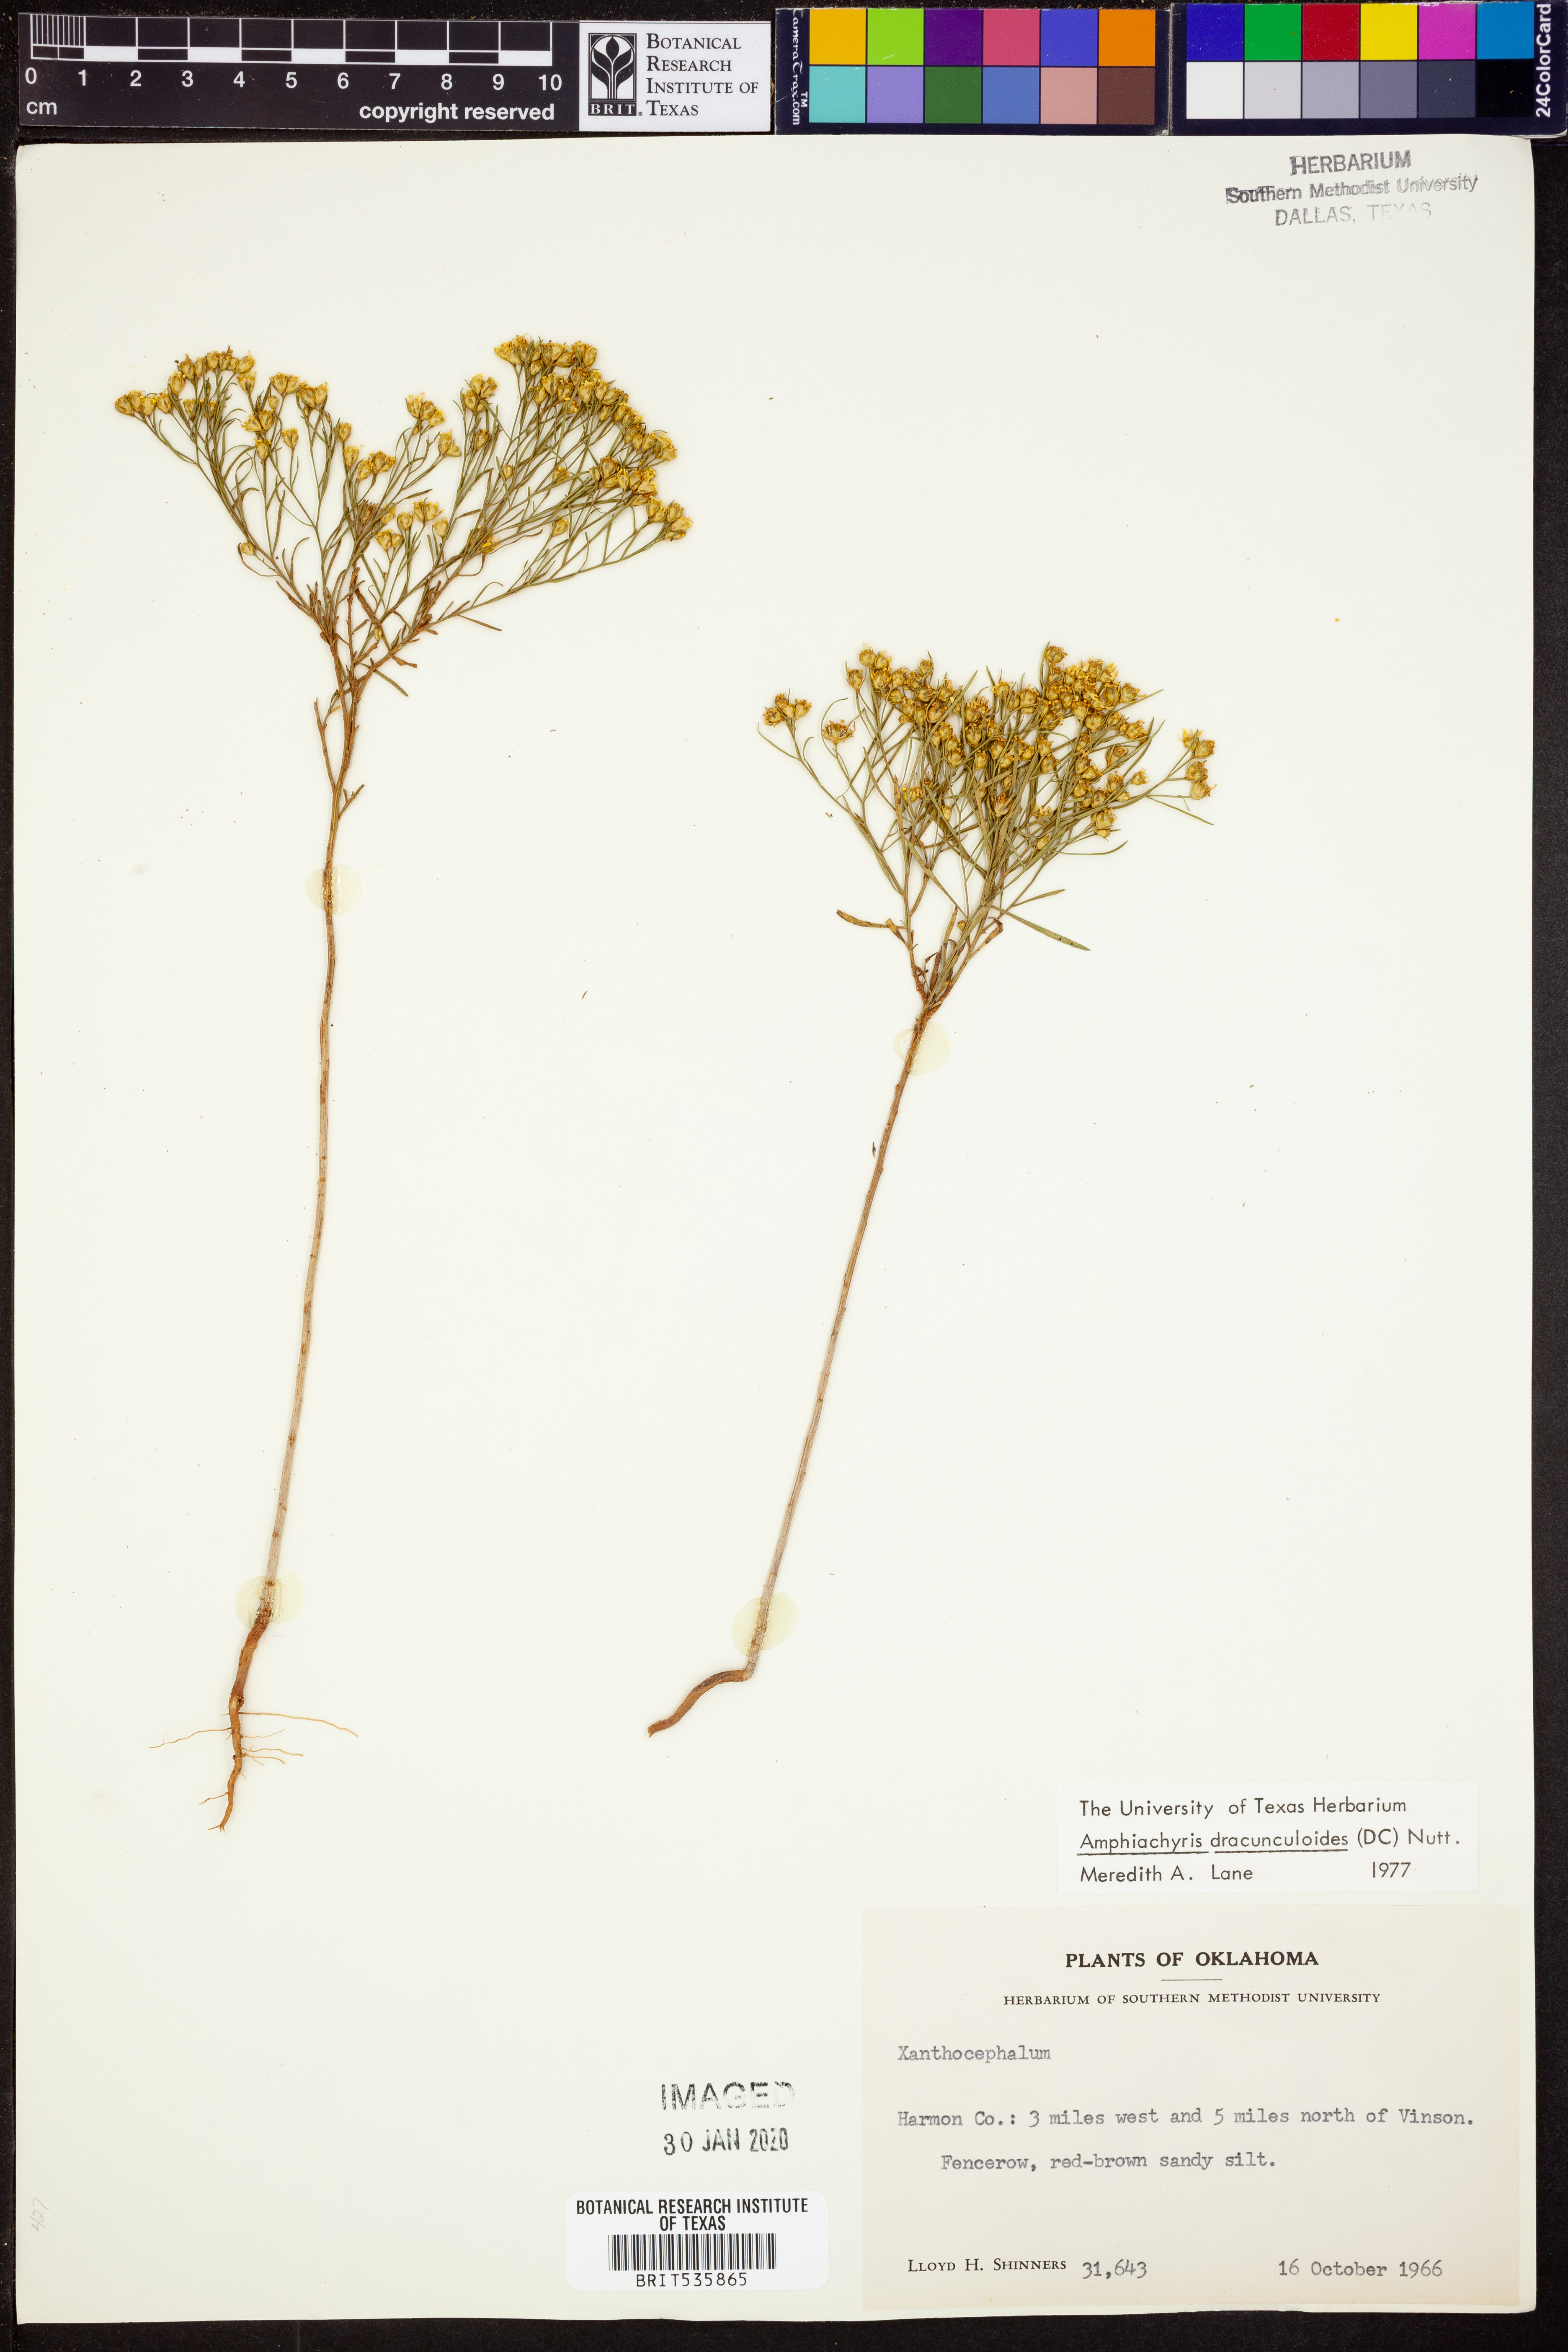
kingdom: Plantae
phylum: Tracheophyta
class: Magnoliopsida
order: Asterales
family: Asteraceae
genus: Amphiachyris
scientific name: Amphiachyris dracunculoides
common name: Broomweed
